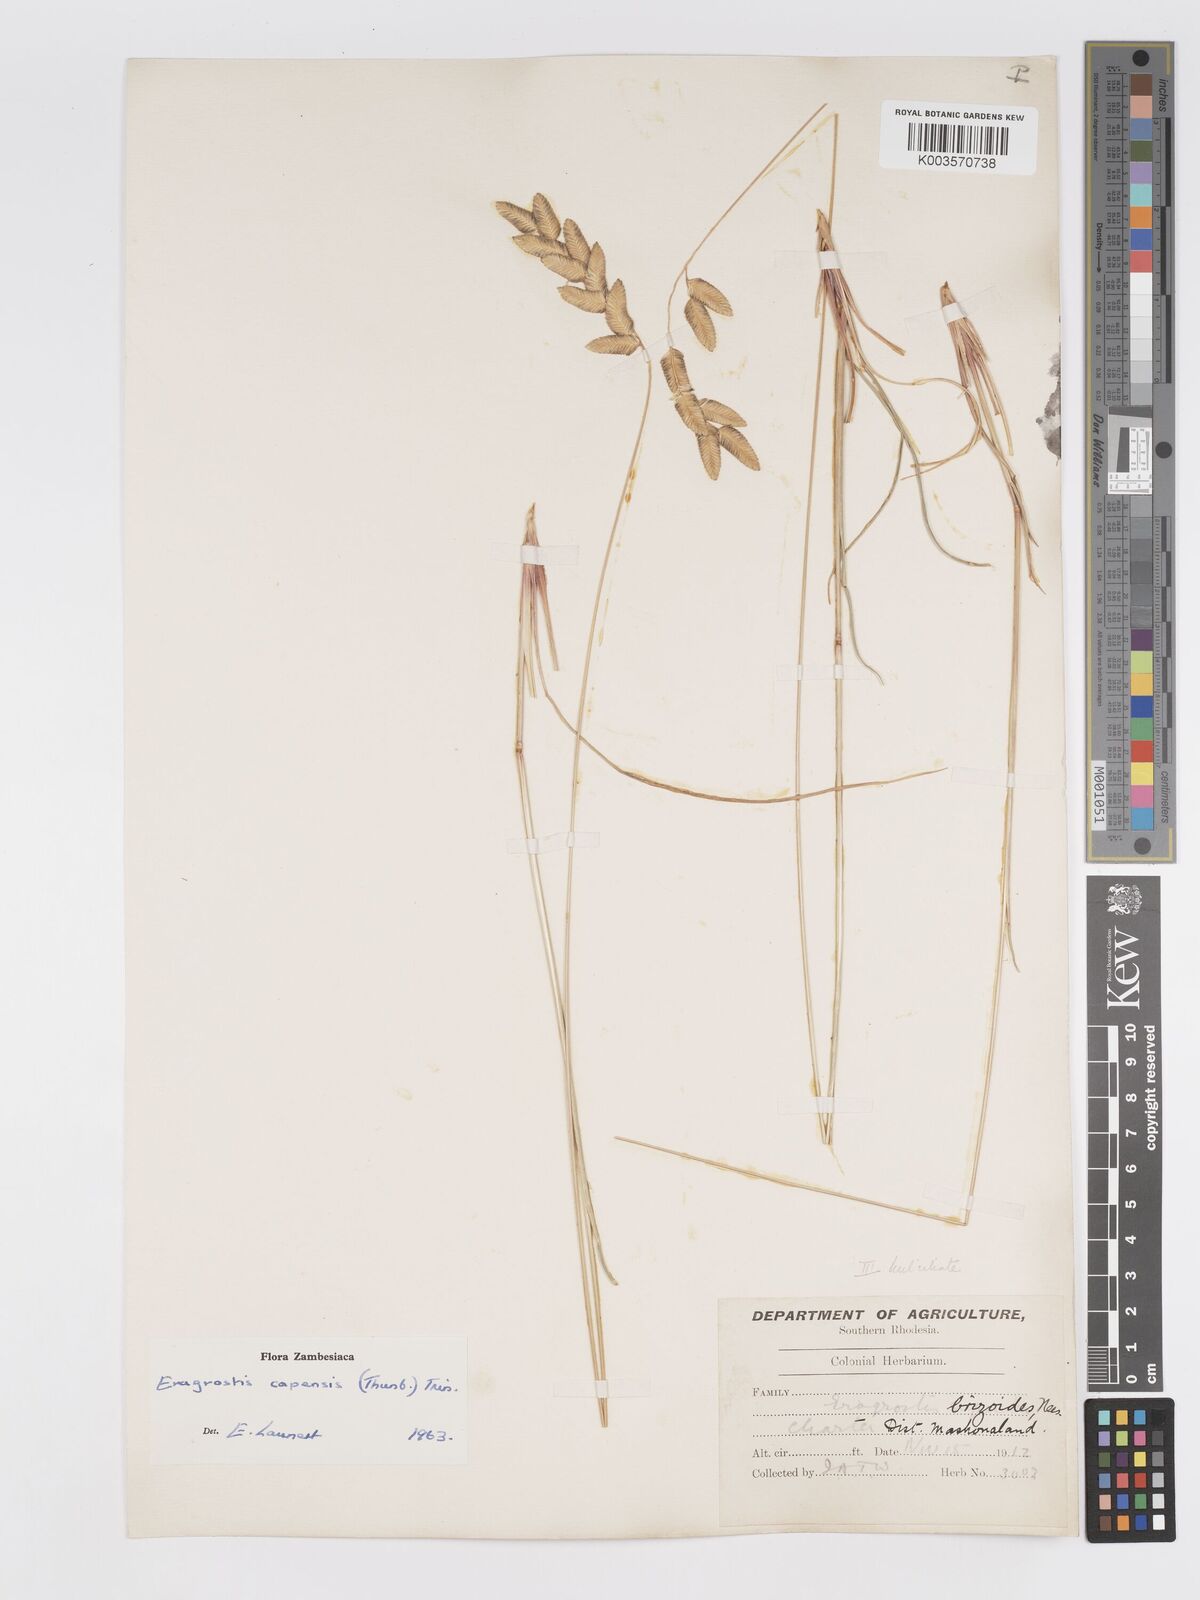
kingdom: Plantae
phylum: Tracheophyta
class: Liliopsida
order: Poales
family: Poaceae
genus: Eragrostis
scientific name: Eragrostis capensis
